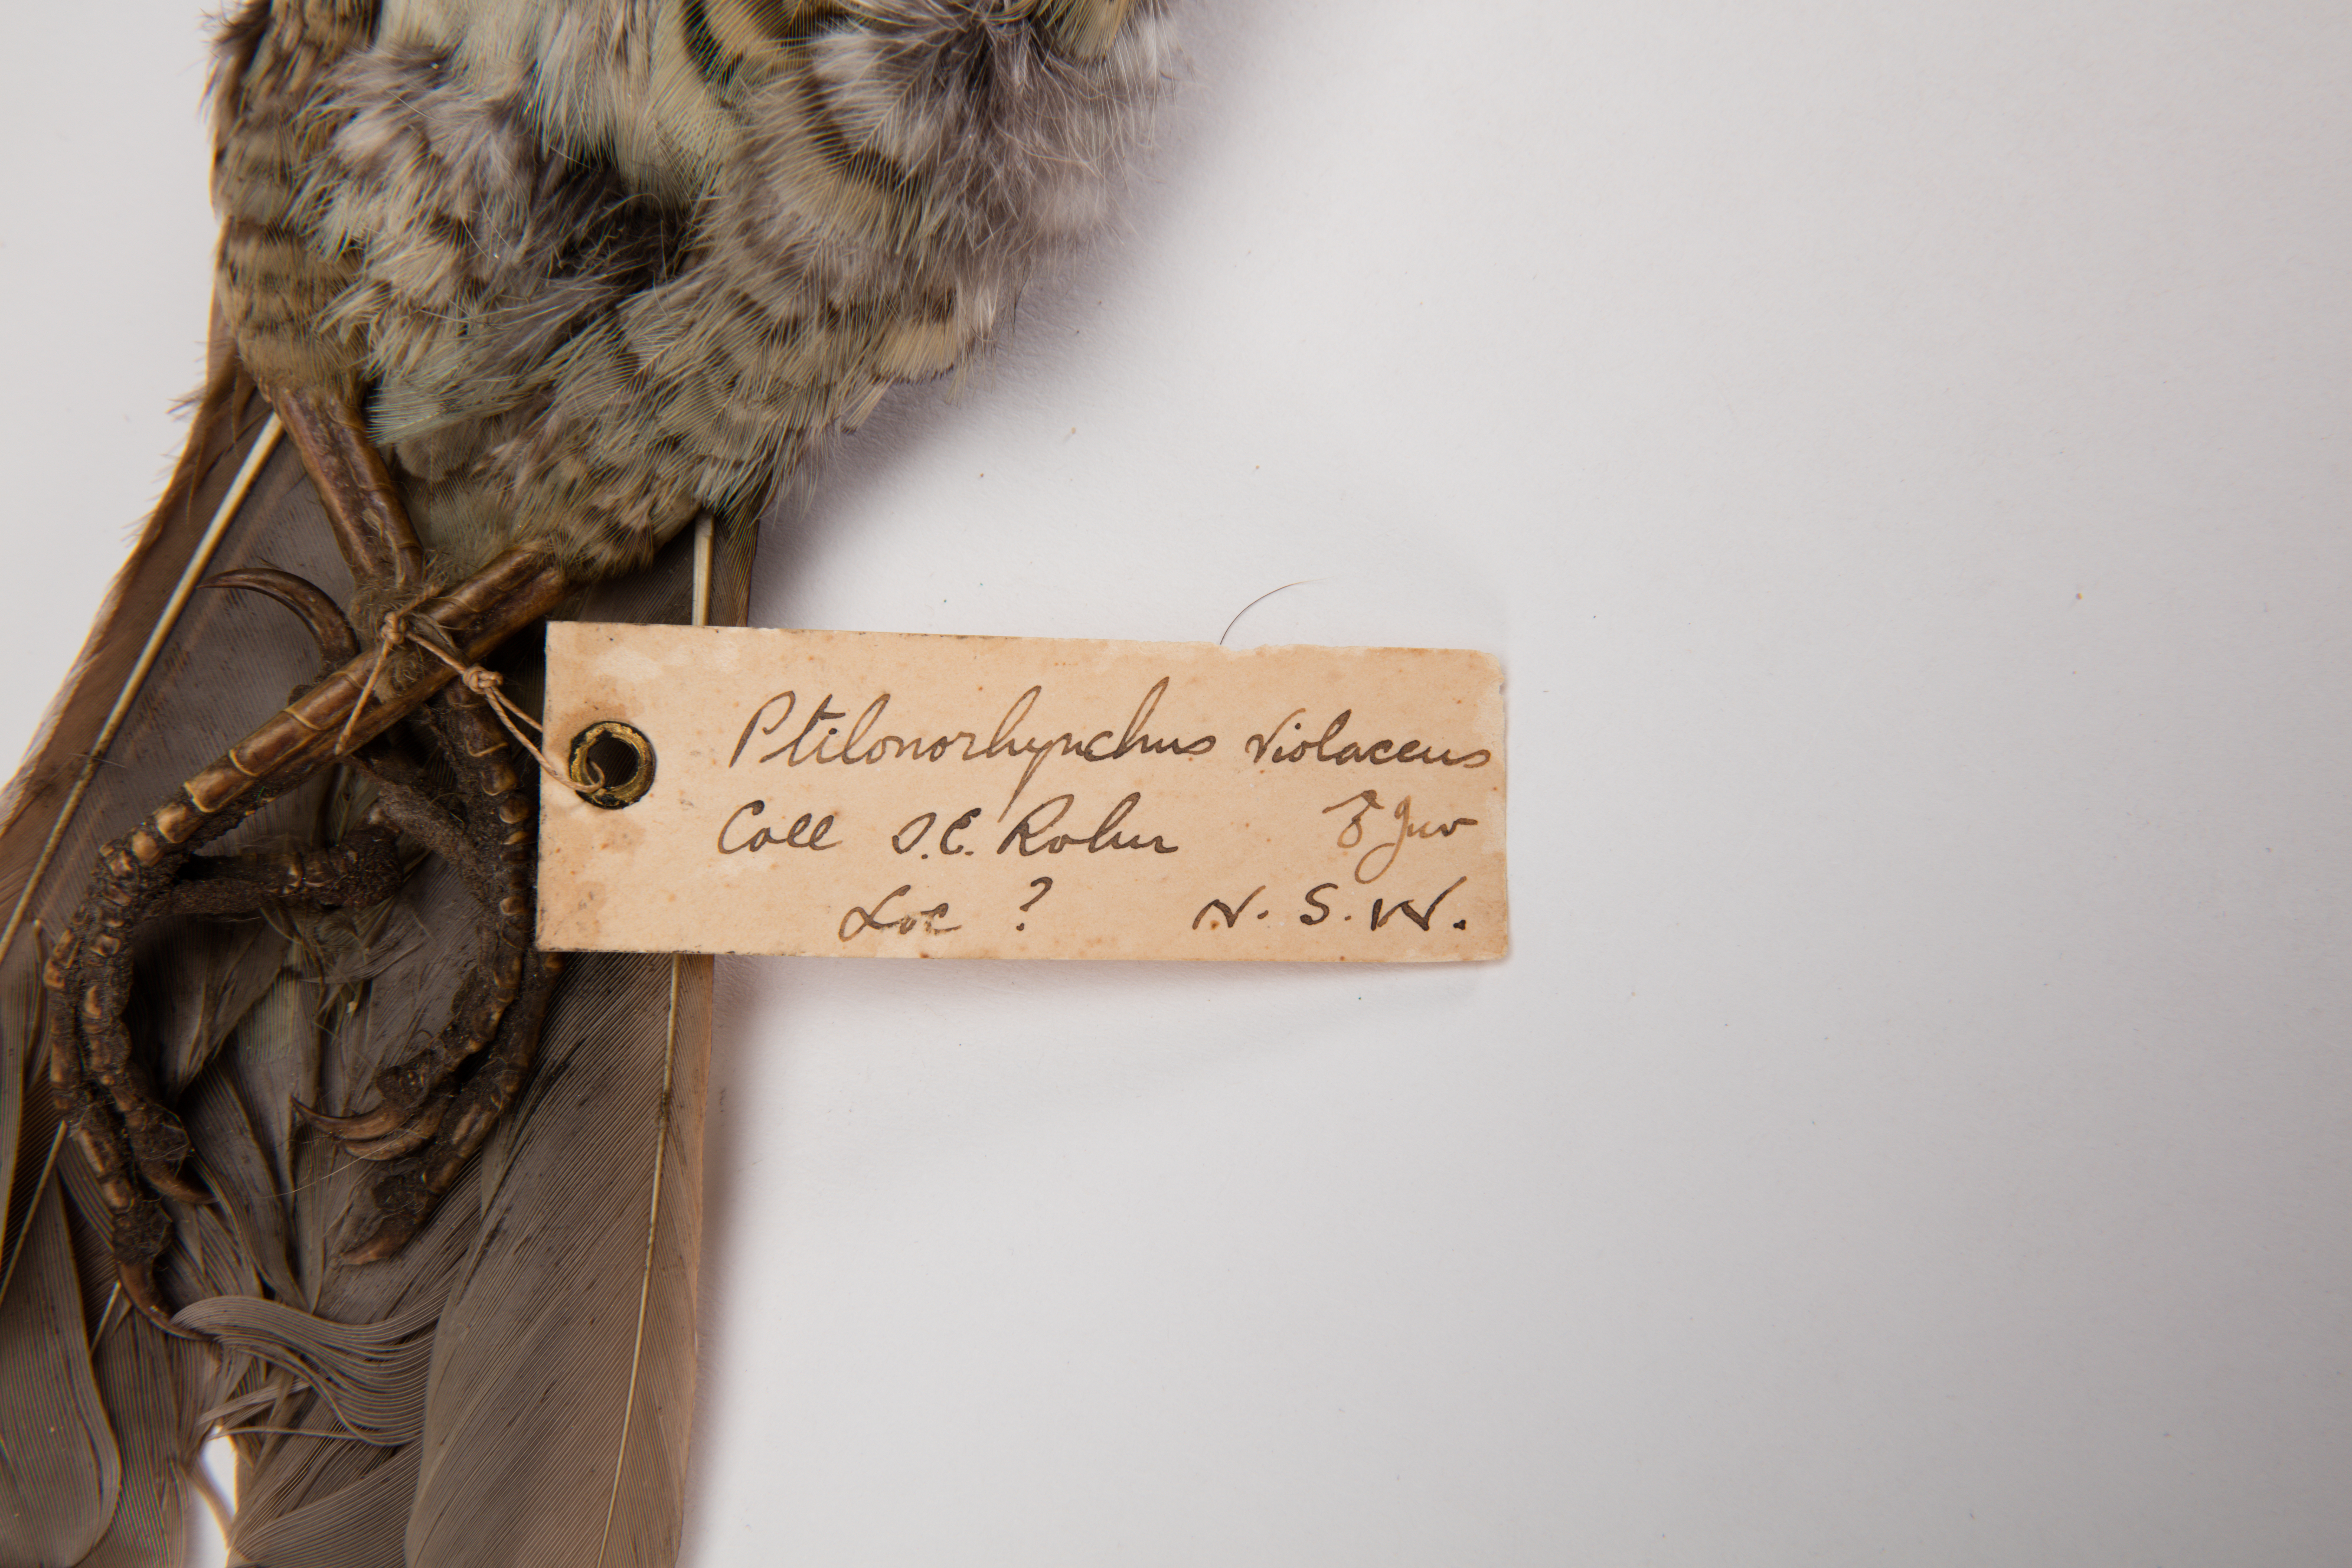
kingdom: Animalia
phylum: Chordata
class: Aves
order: Passeriformes
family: Ptilonorhynchidae
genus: Ptilonorhynchus
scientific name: Ptilonorhynchus violaceus
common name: Satin bowerbird
